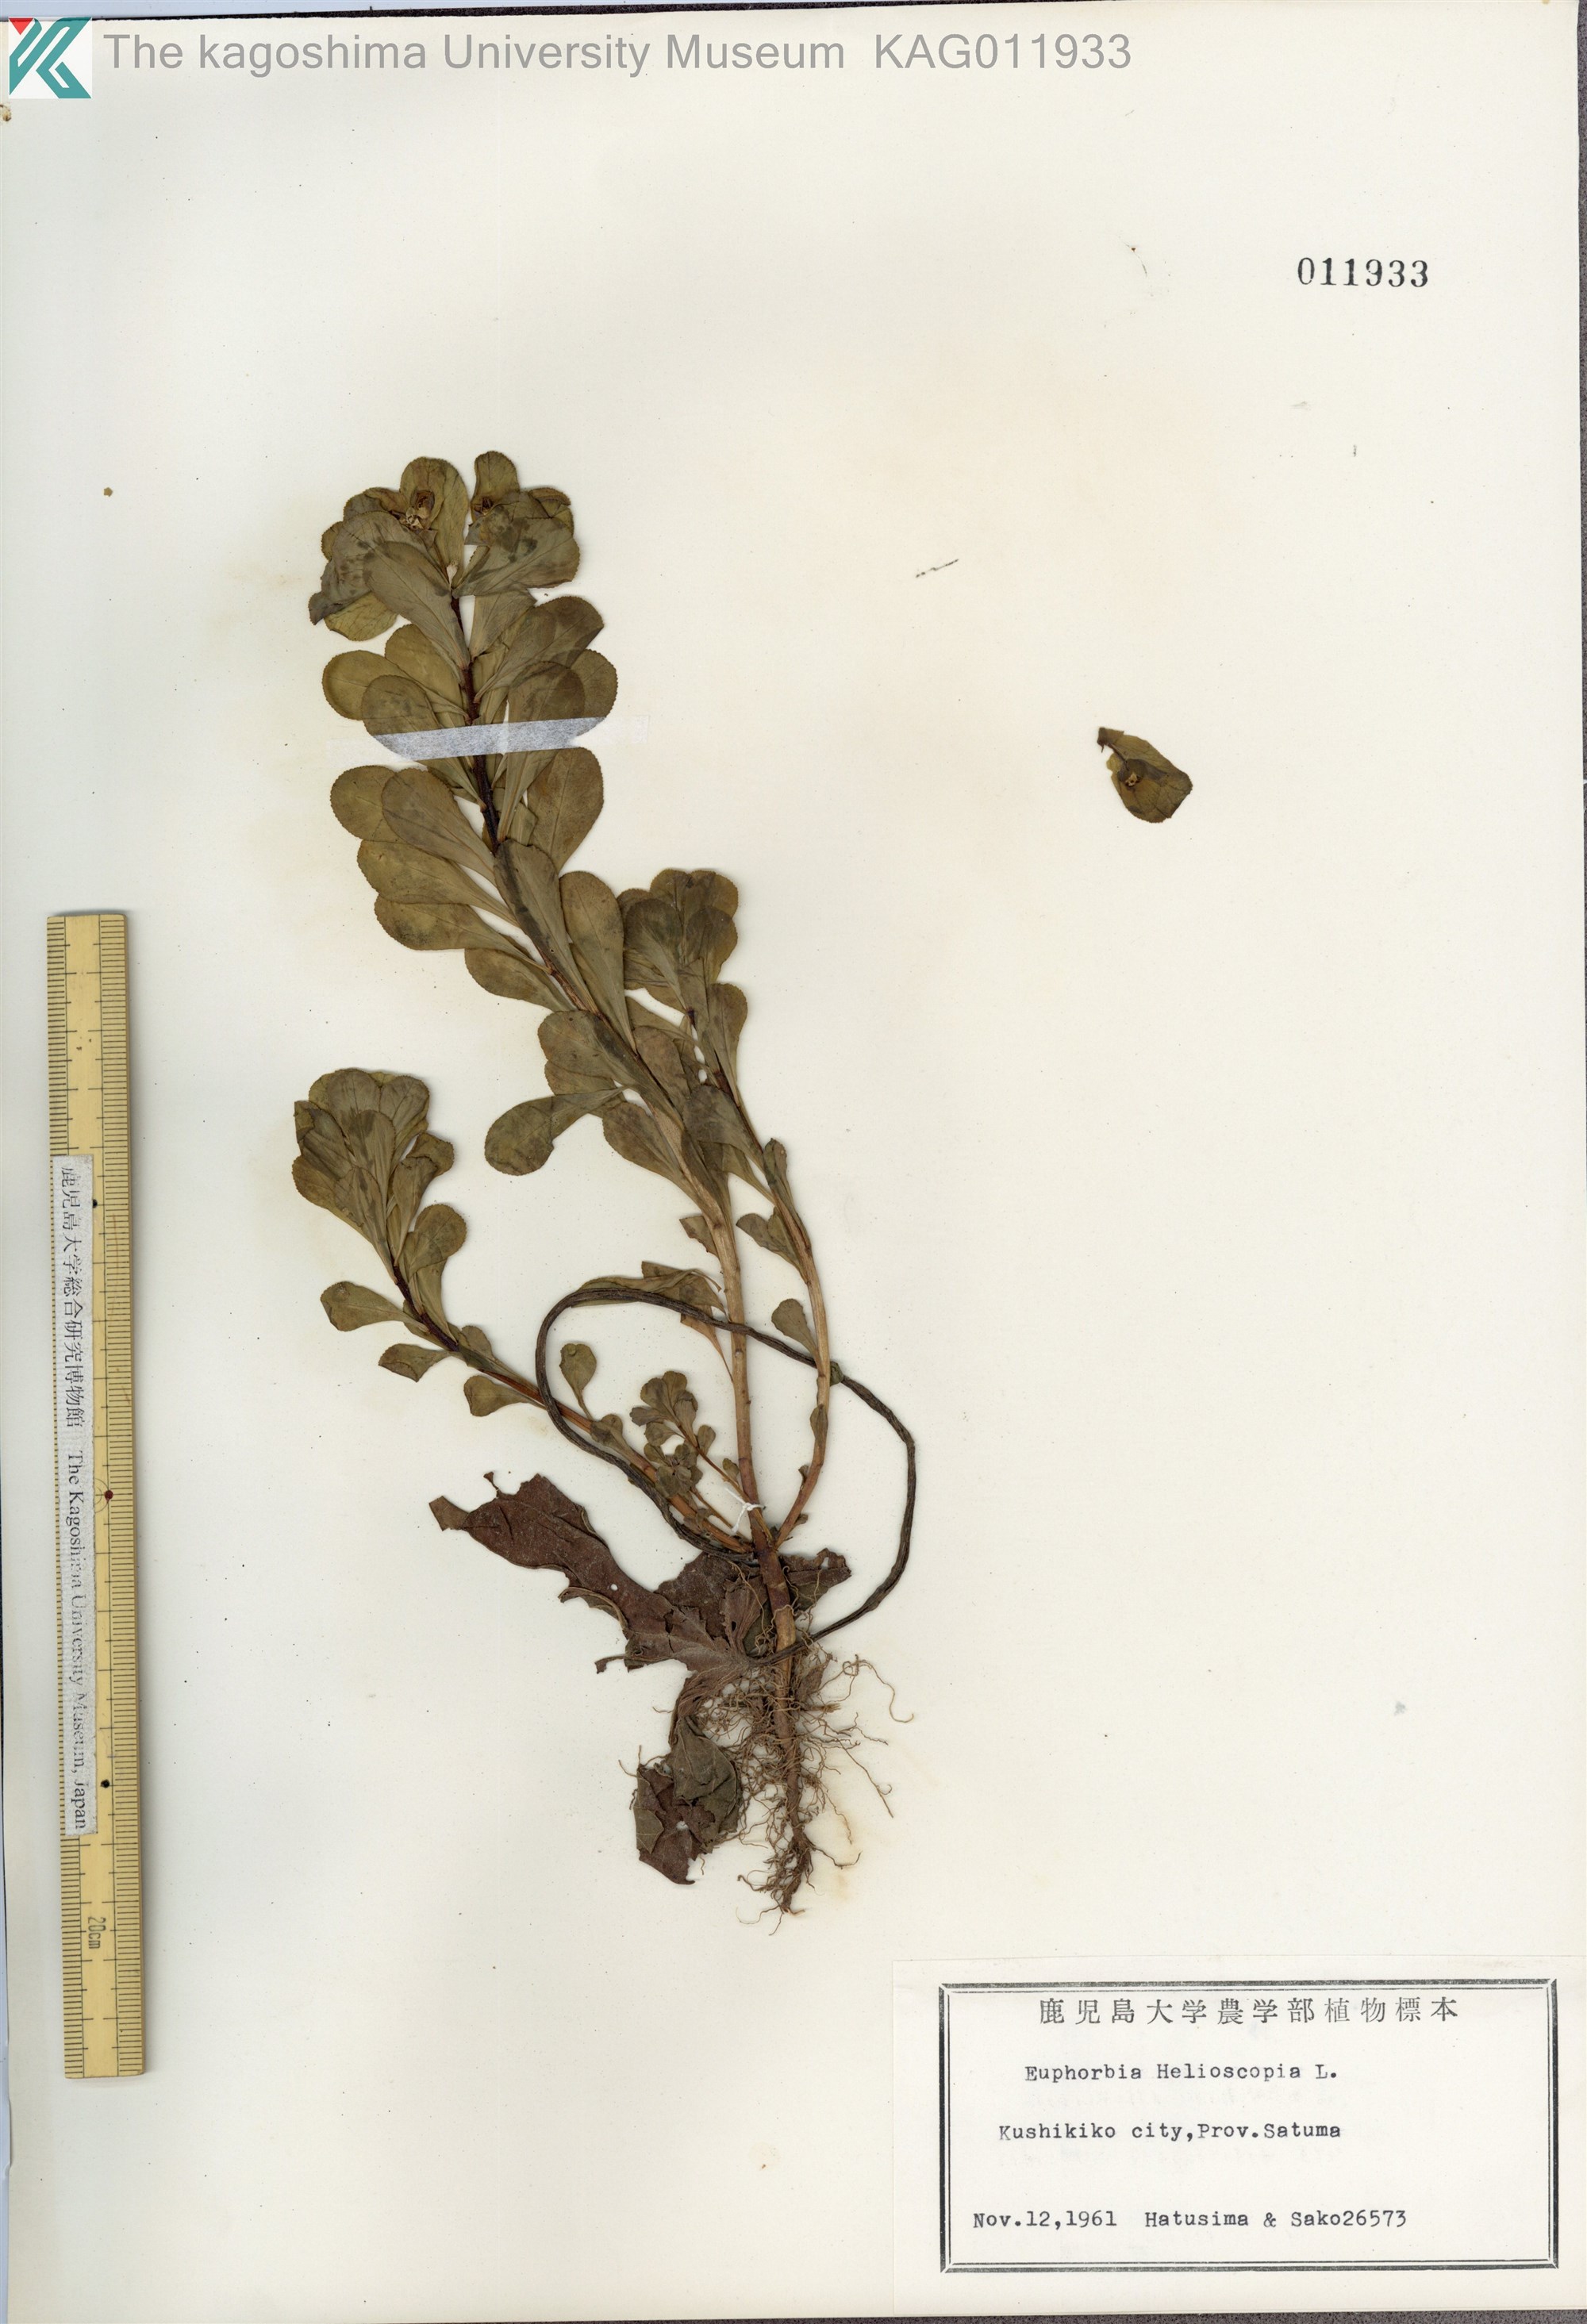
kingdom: Plantae
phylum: Tracheophyta
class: Magnoliopsida
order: Malpighiales
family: Euphorbiaceae
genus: Euphorbia
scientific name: Euphorbia helioscopia
